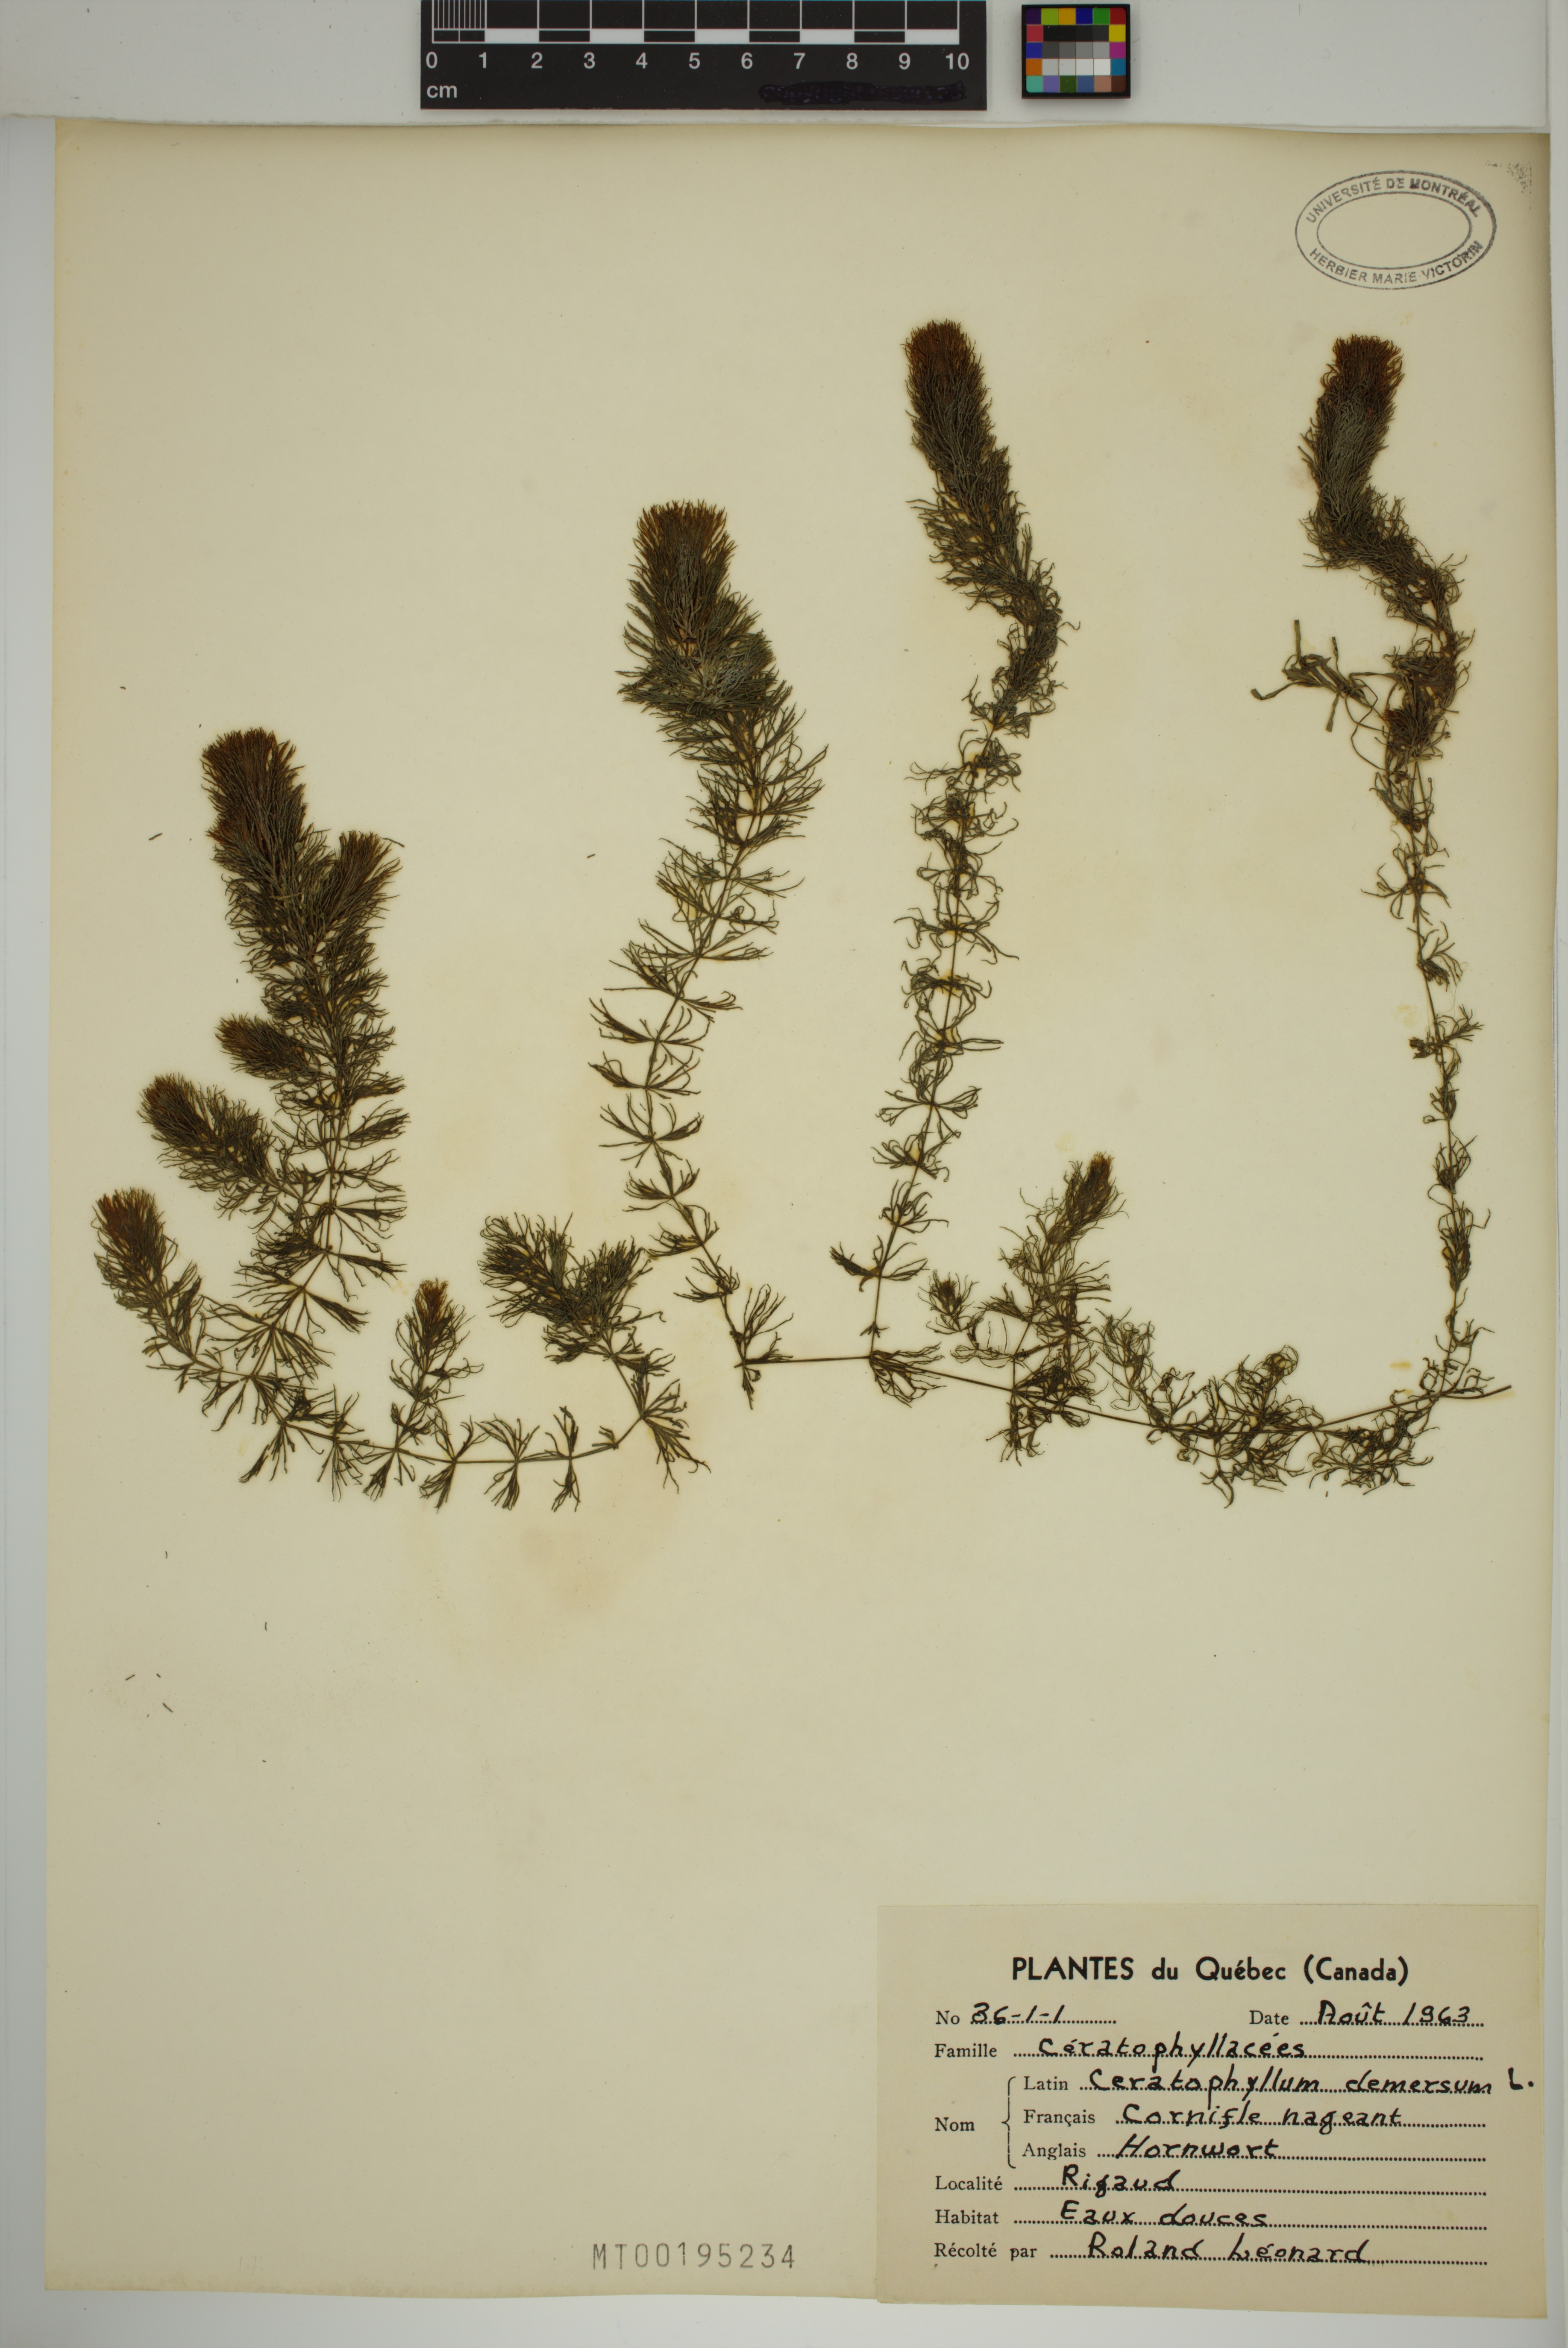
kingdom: Plantae
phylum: Tracheophyta
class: Magnoliopsida
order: Ceratophyllales
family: Ceratophyllaceae
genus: Ceratophyllum
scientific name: Ceratophyllum demersum
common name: Rigid hornwort
